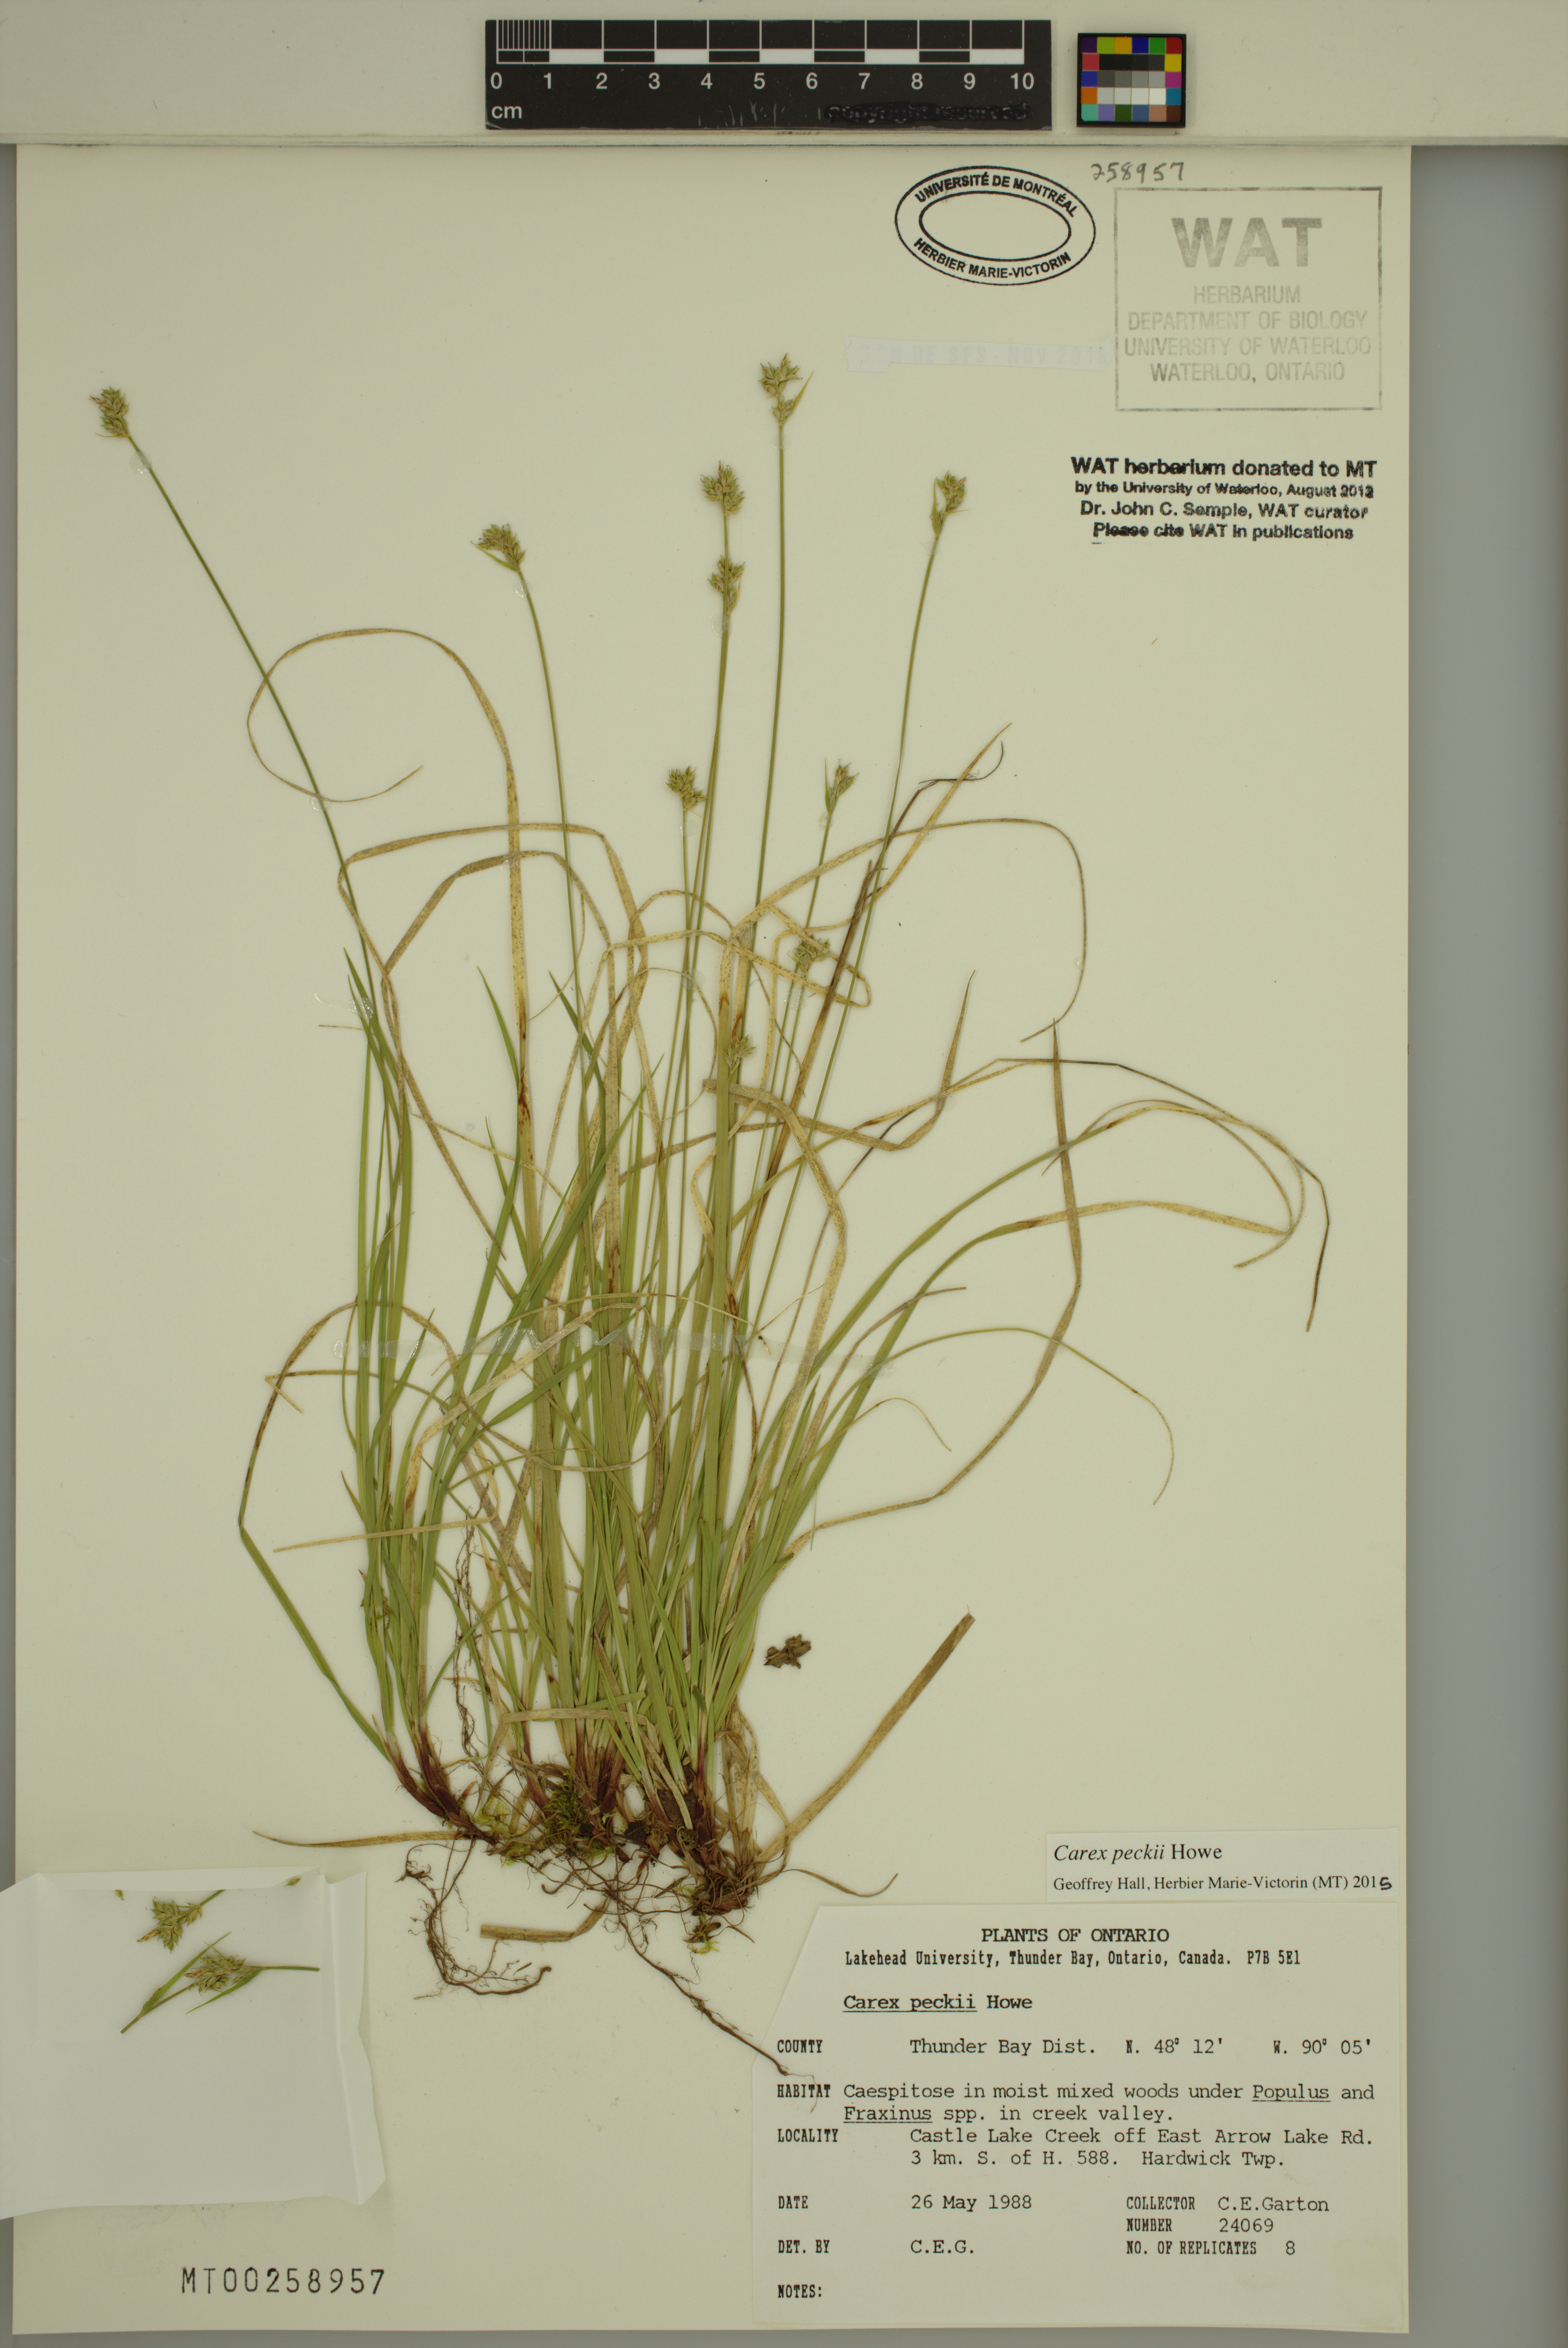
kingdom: Plantae
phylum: Tracheophyta
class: Liliopsida
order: Poales
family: Cyperaceae
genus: Carex
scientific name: Carex peckii
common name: Peck's oak sedge
